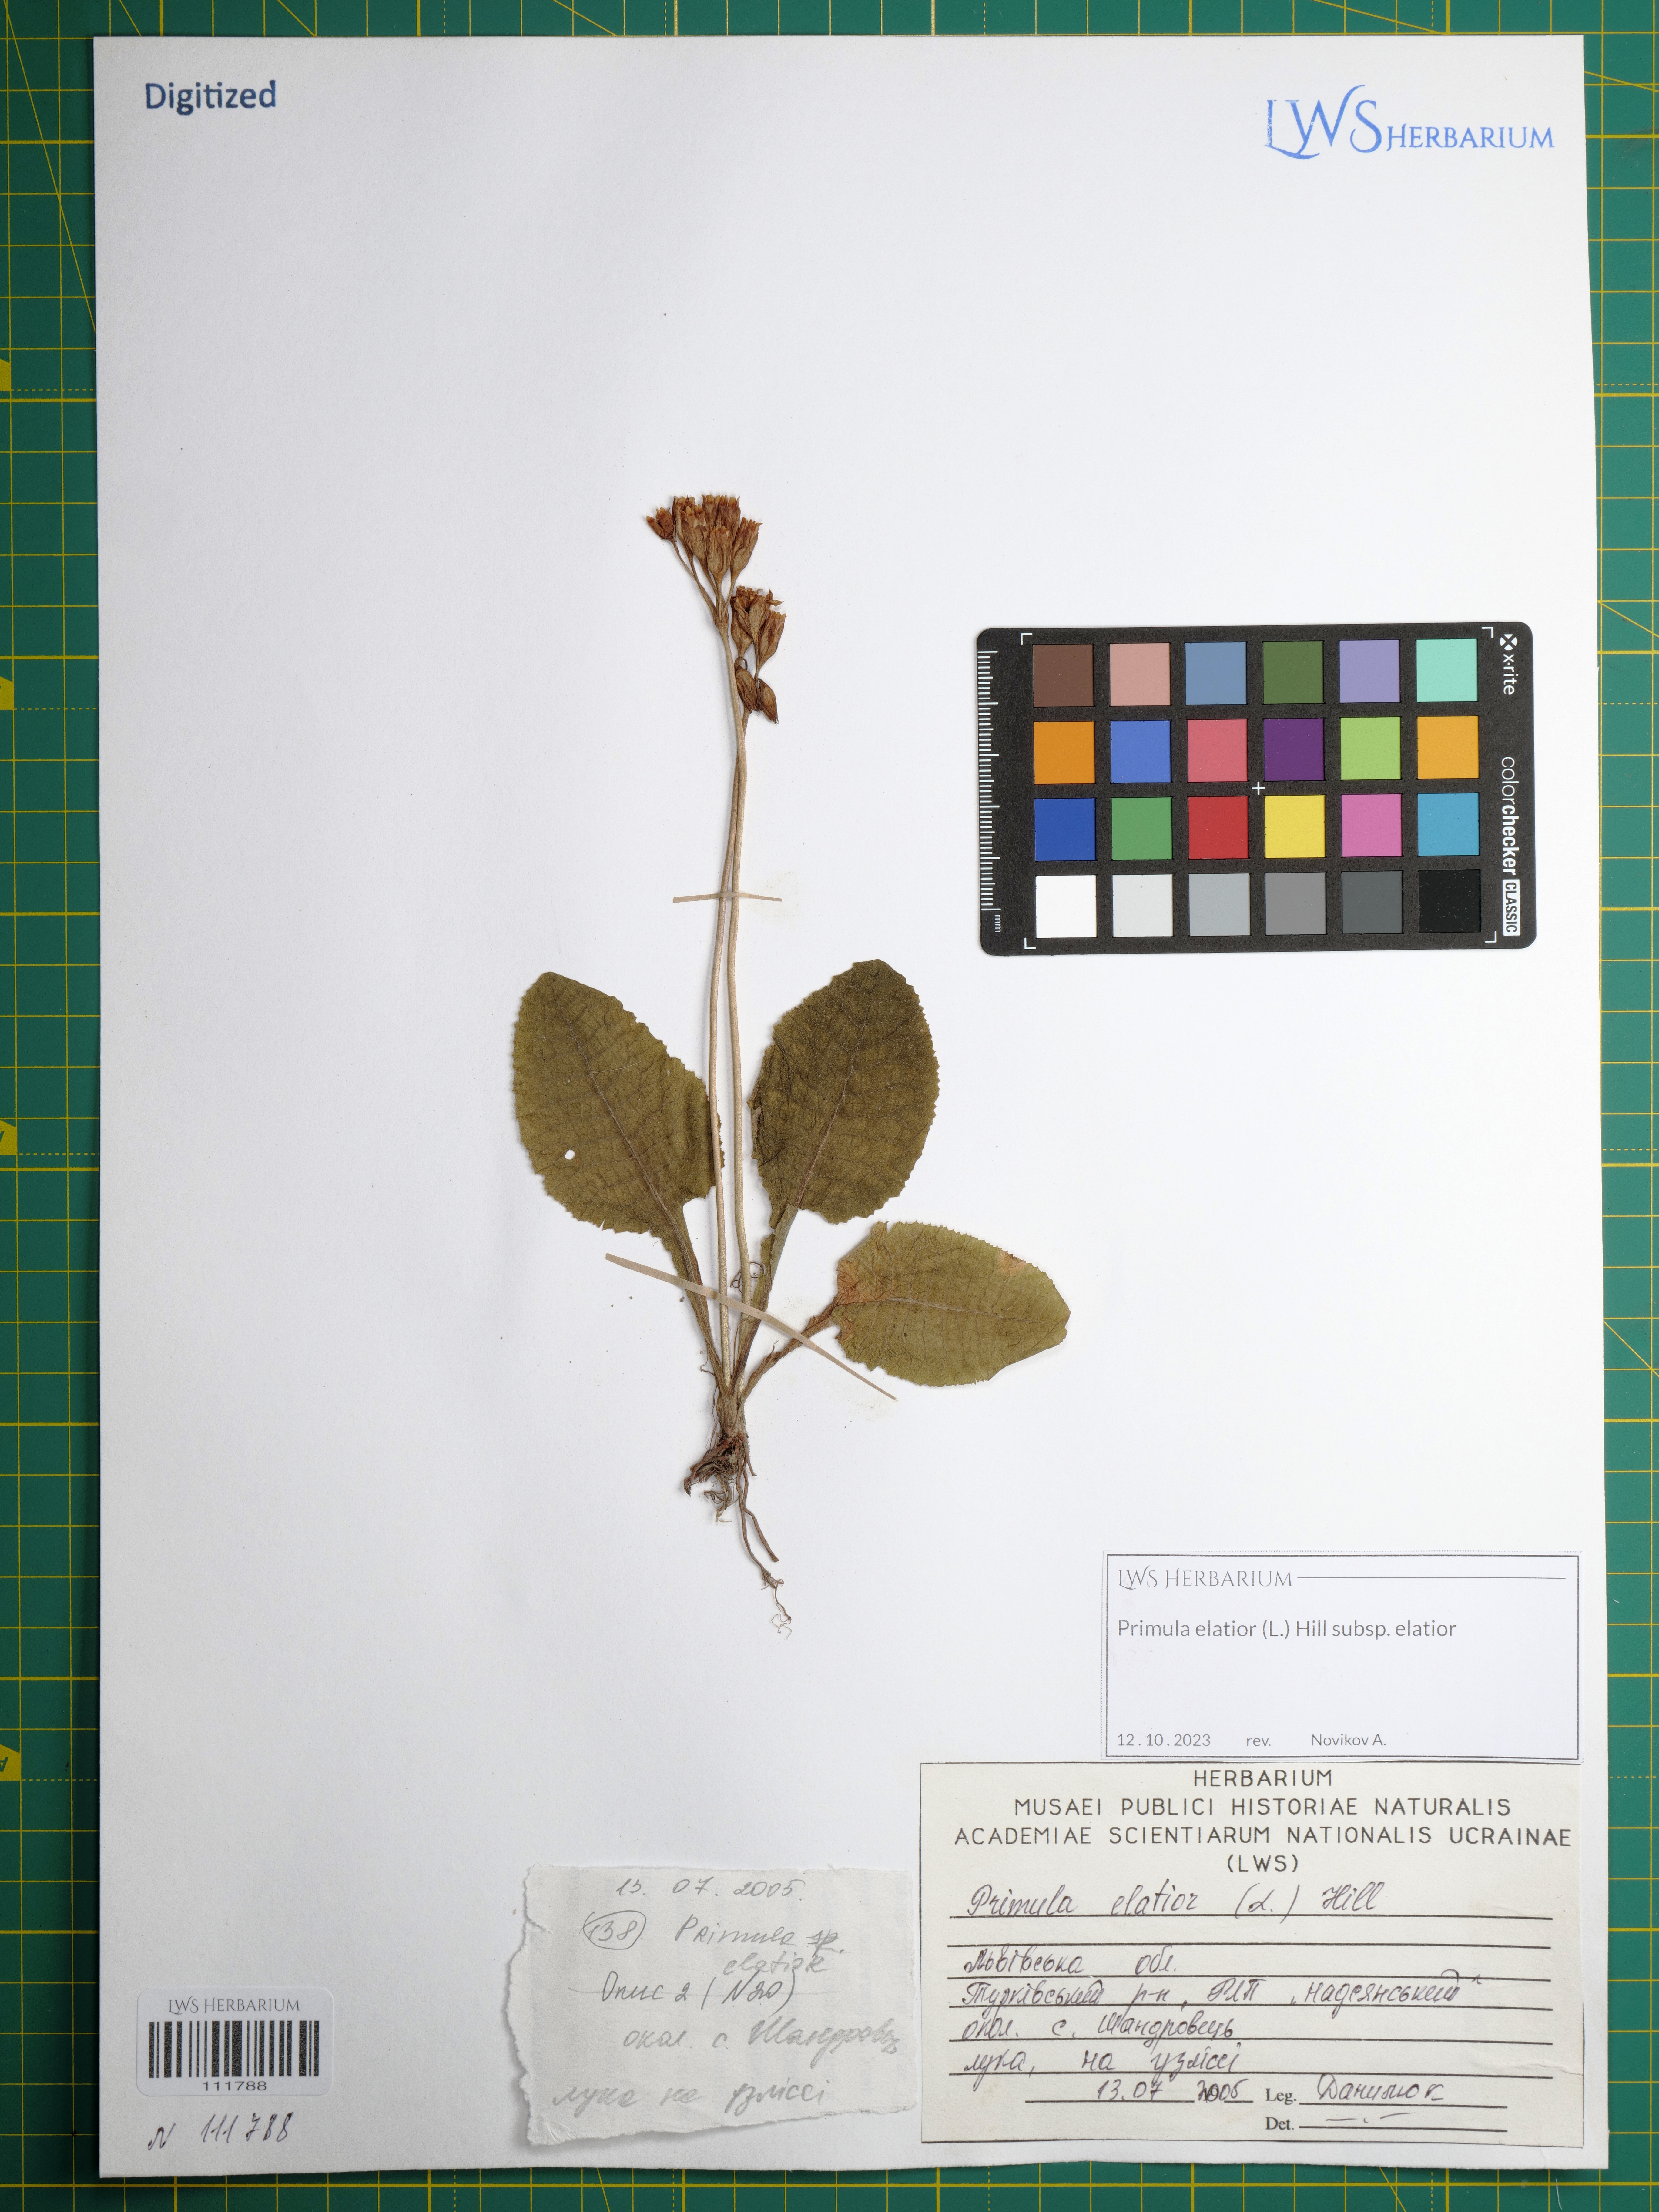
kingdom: Plantae
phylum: Tracheophyta
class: Magnoliopsida
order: Ericales
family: Primulaceae
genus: Primula
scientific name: Primula elatior
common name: Oxlip
